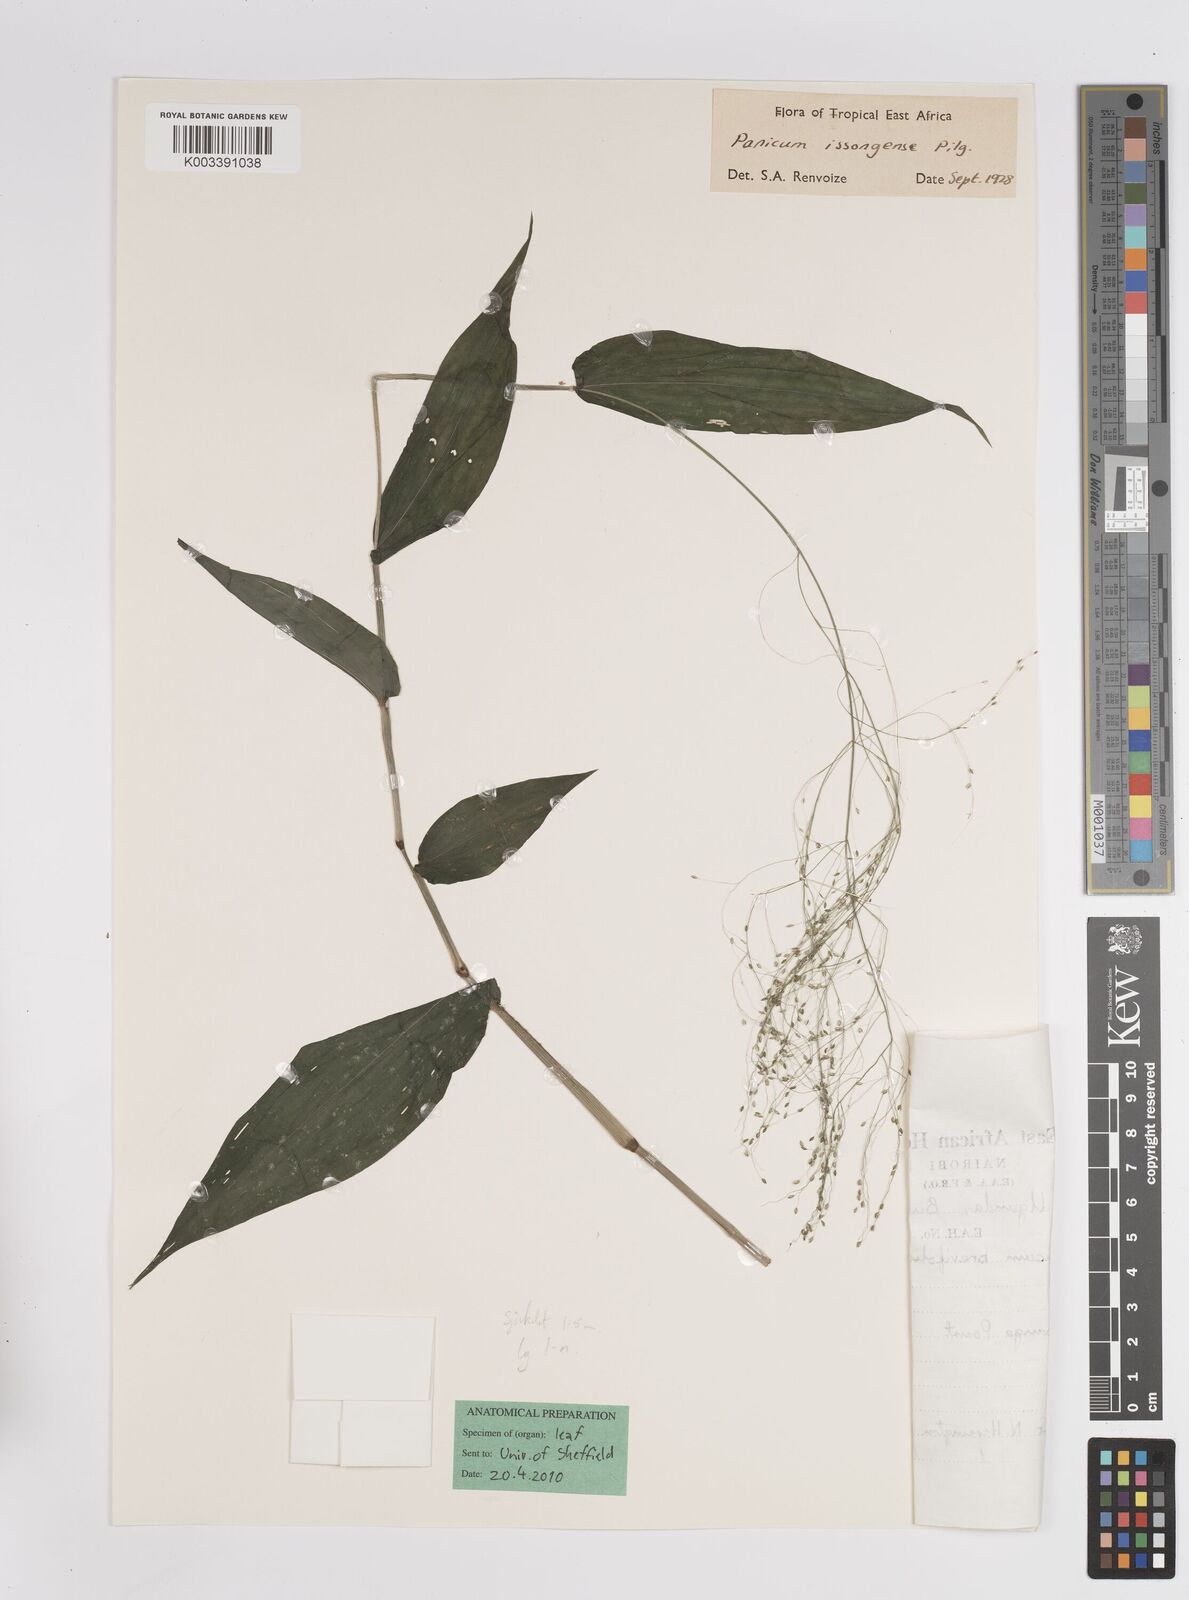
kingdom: Plantae
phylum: Tracheophyta
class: Liliopsida
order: Poales
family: Poaceae
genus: Panicum
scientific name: Panicum issongense
